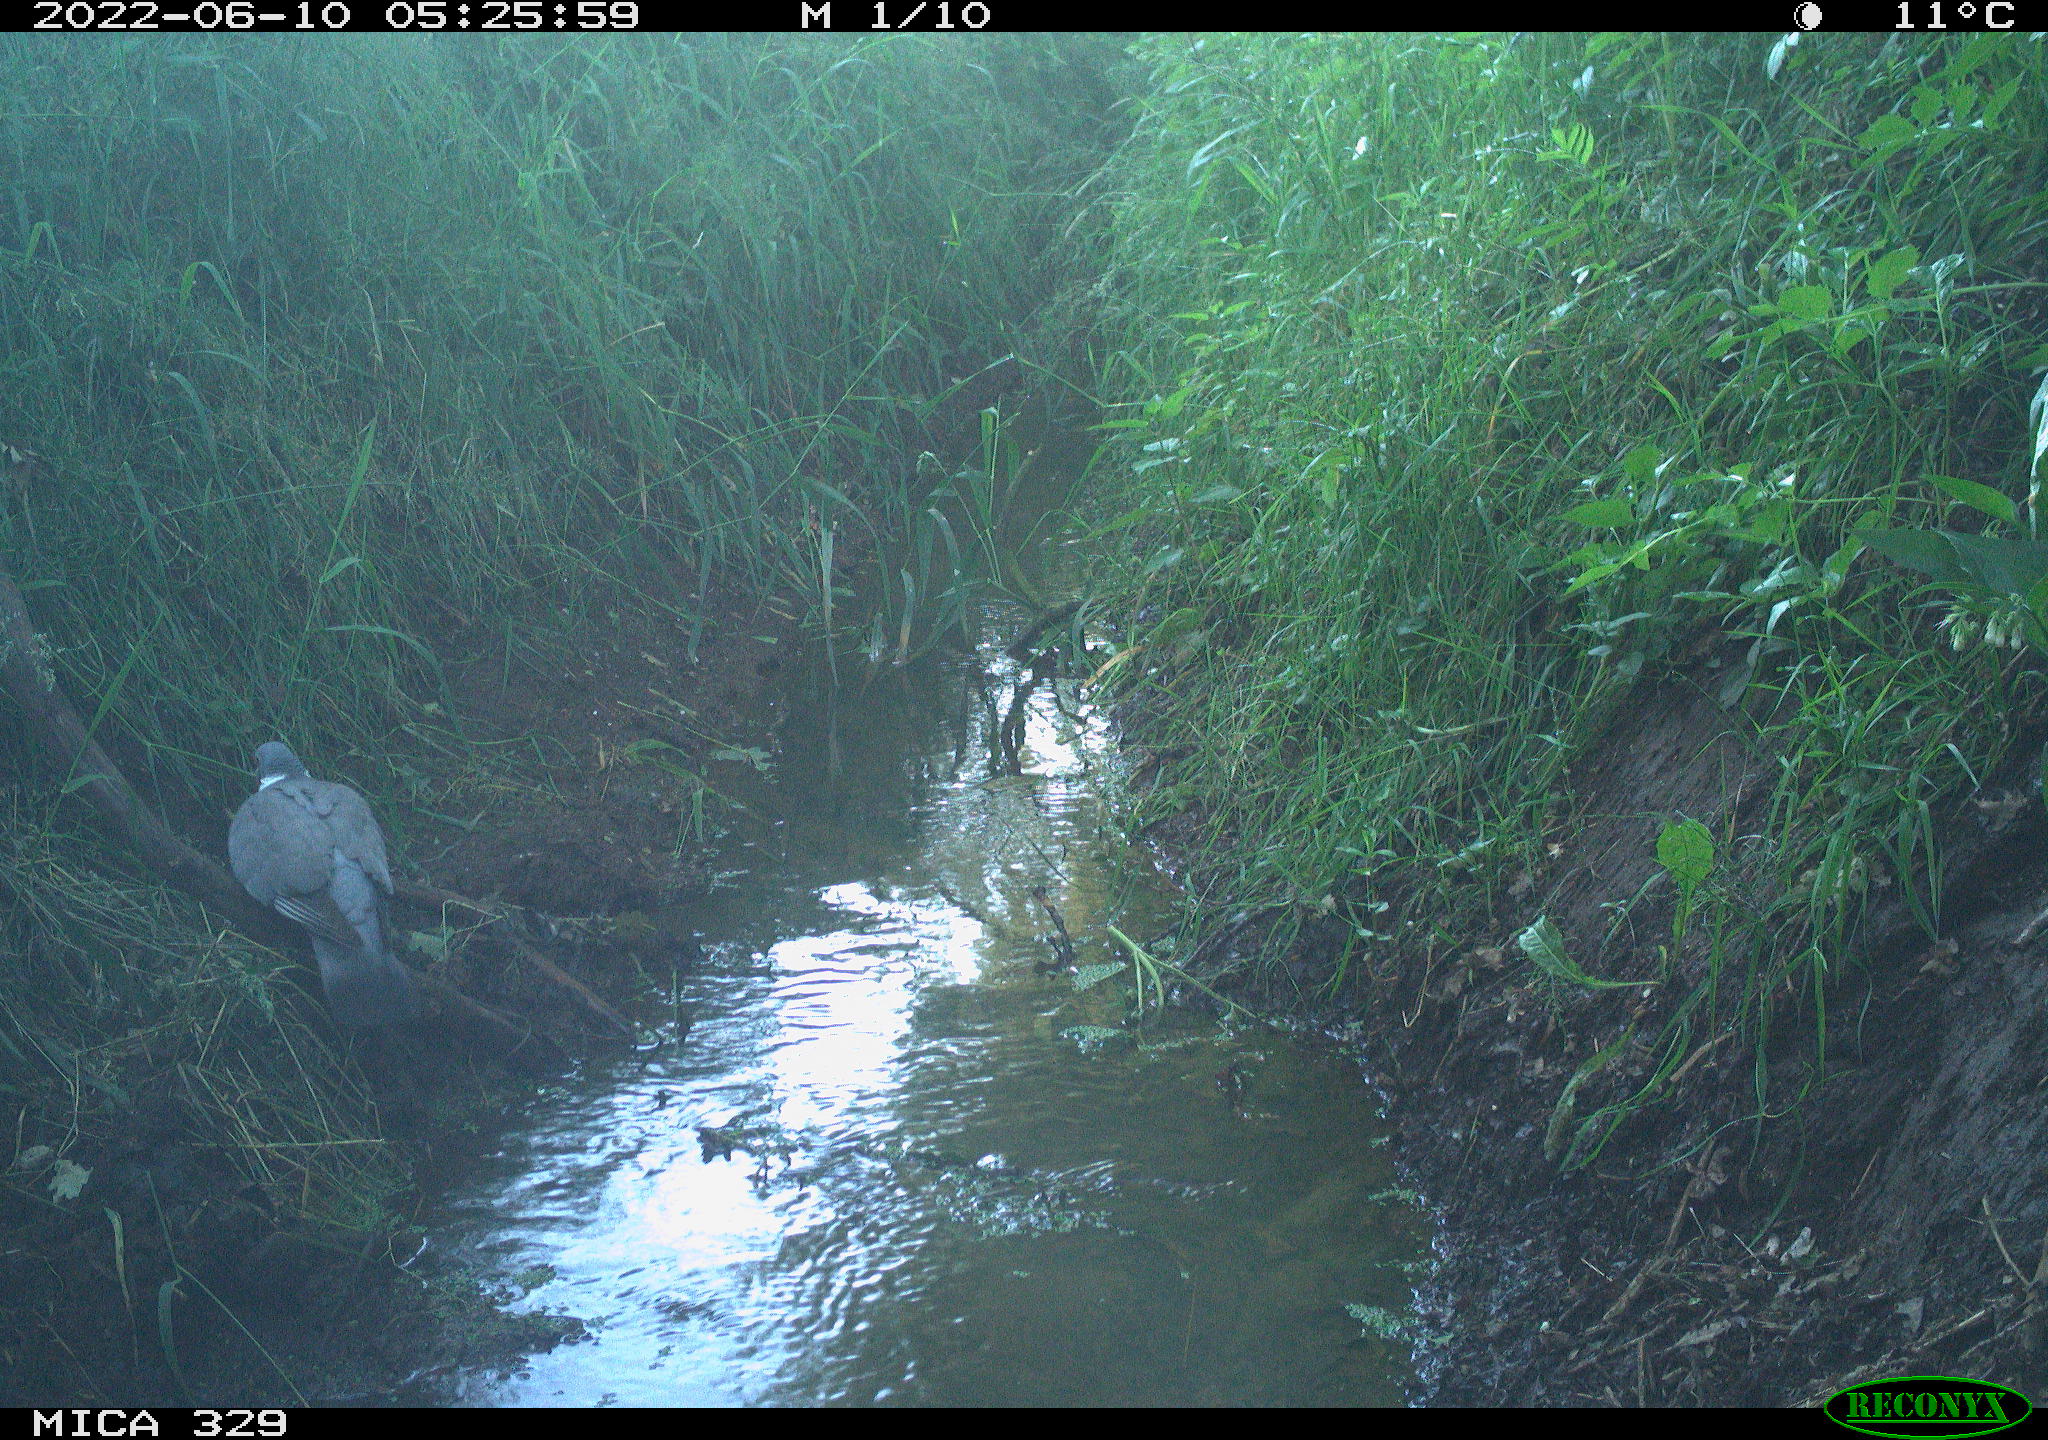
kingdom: Animalia
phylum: Chordata
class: Aves
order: Columbiformes
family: Columbidae
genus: Columba
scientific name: Columba palumbus
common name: Common wood pigeon
